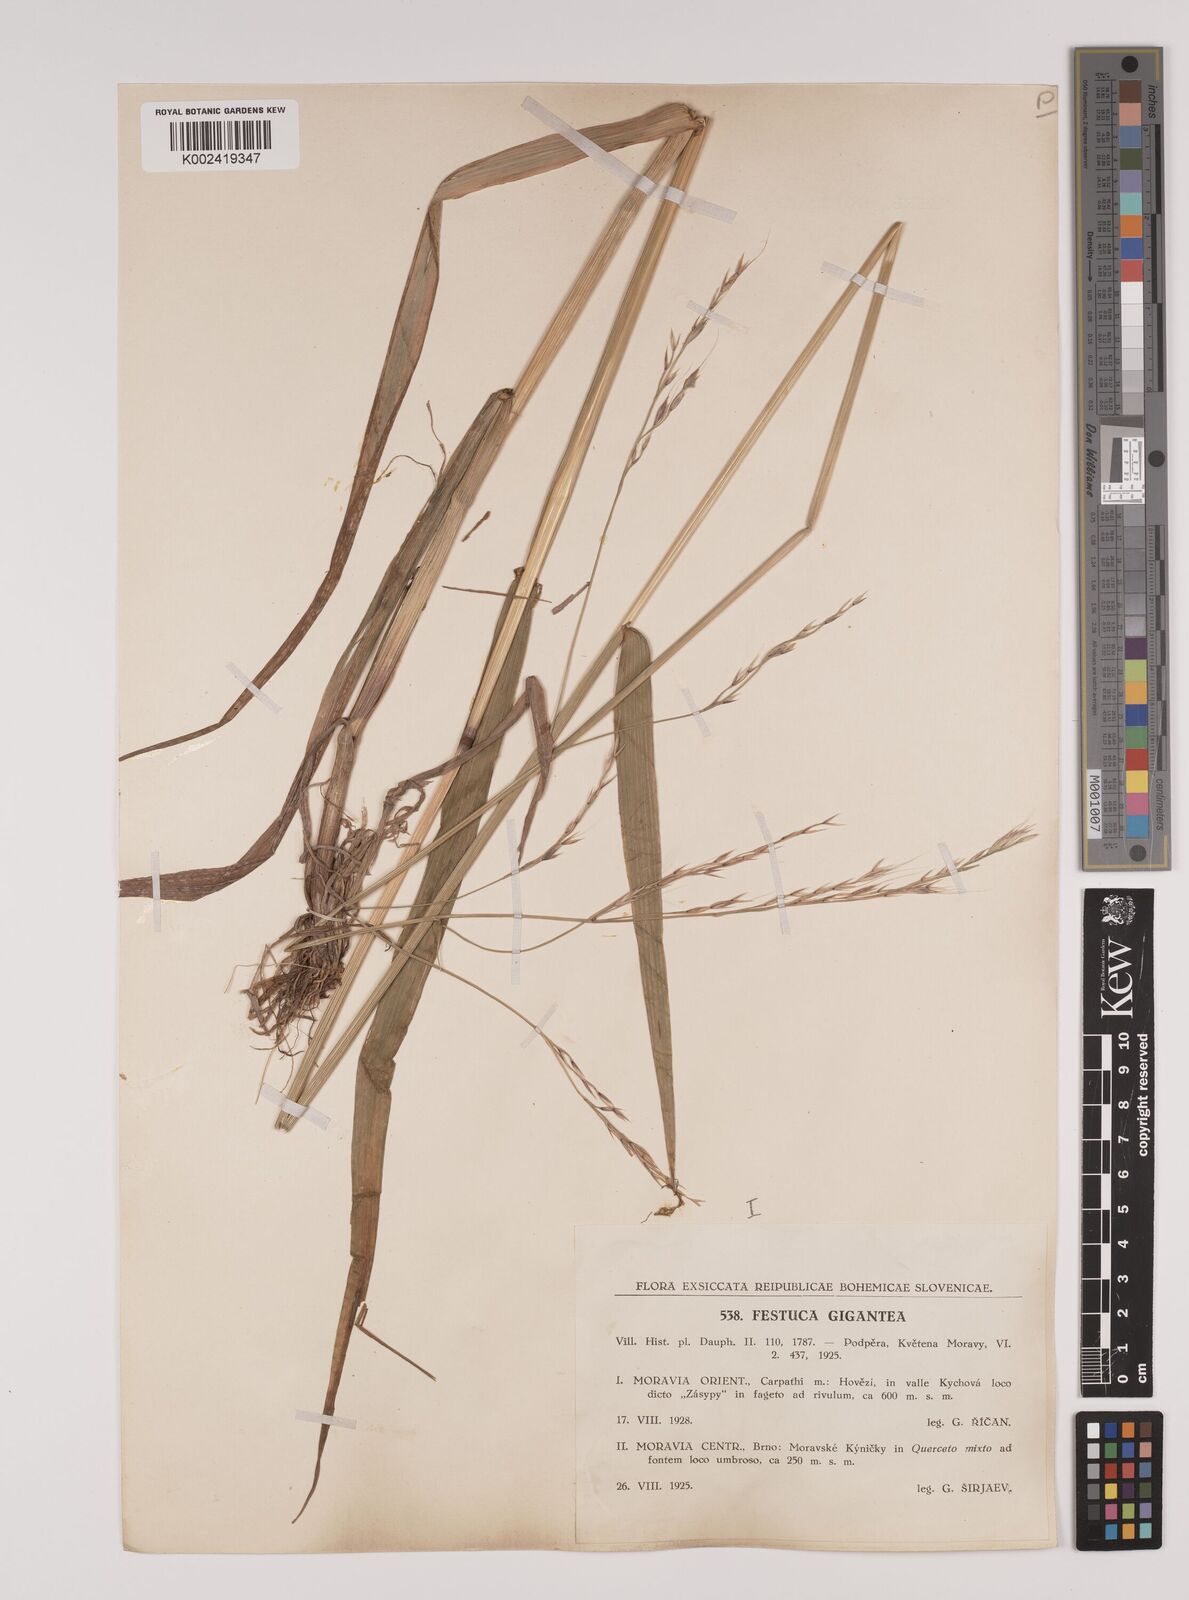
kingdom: Plantae
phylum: Tracheophyta
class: Liliopsida
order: Poales
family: Poaceae
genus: Lolium
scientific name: Lolium giganteum
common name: Giant fescue
